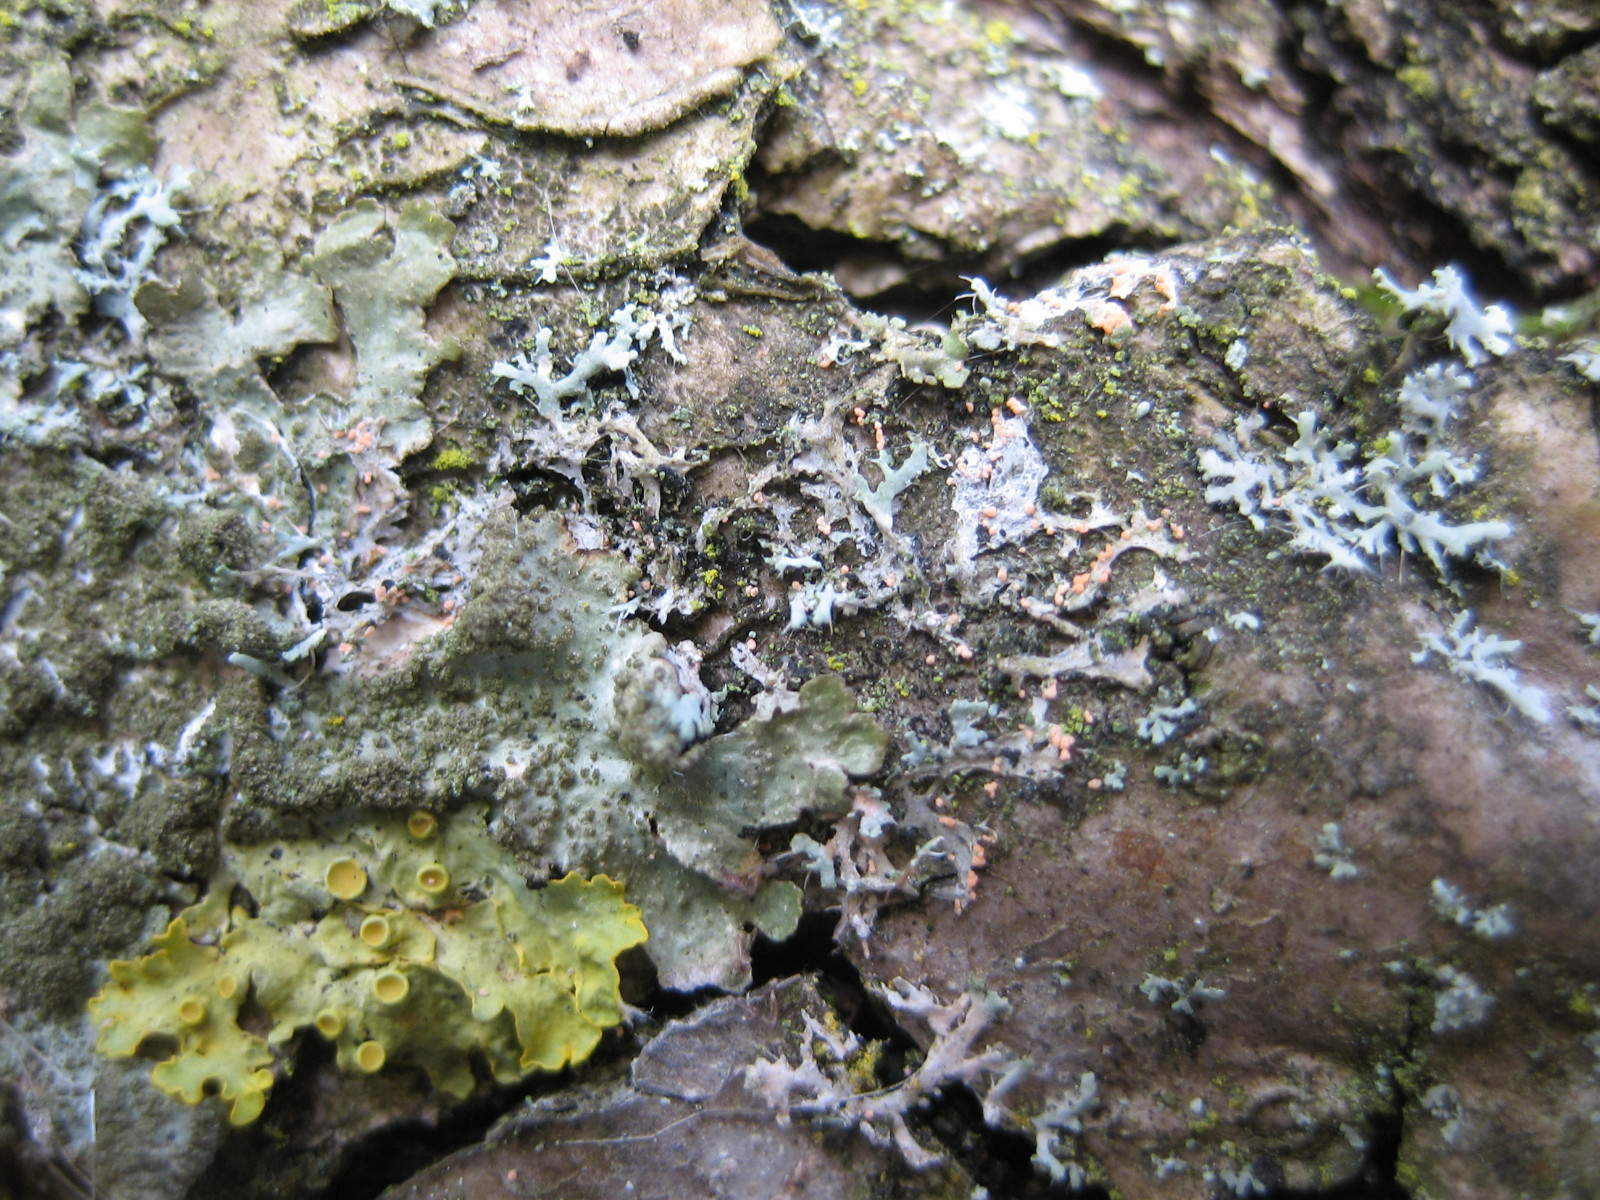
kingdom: Fungi
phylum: Basidiomycota
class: Agaricomycetes
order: Corticiales
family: Corticiaceae
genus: Erythricium
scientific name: Erythricium aurantiacum
